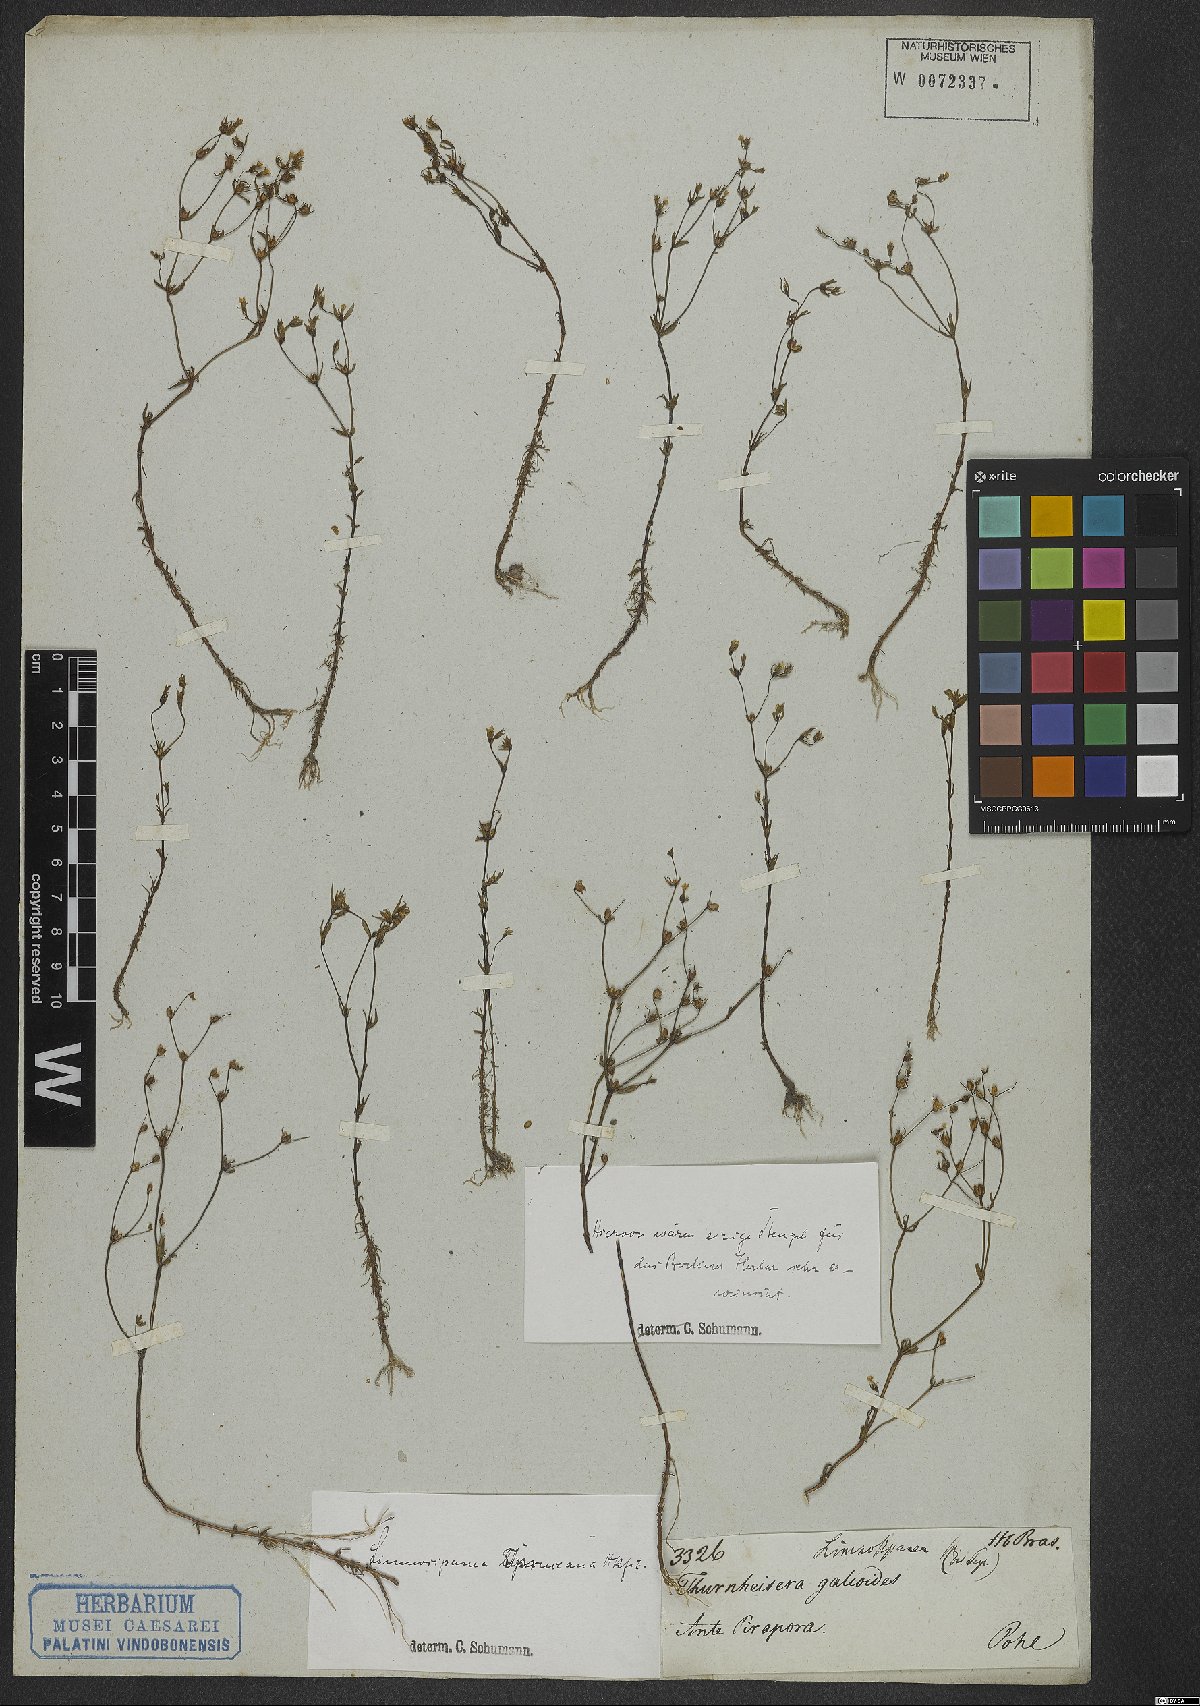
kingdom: Plantae
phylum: Tracheophyta
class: Magnoliopsida
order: Gentianales
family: Rubiaceae
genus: Limnosipanea
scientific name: Limnosipanea spruceana
